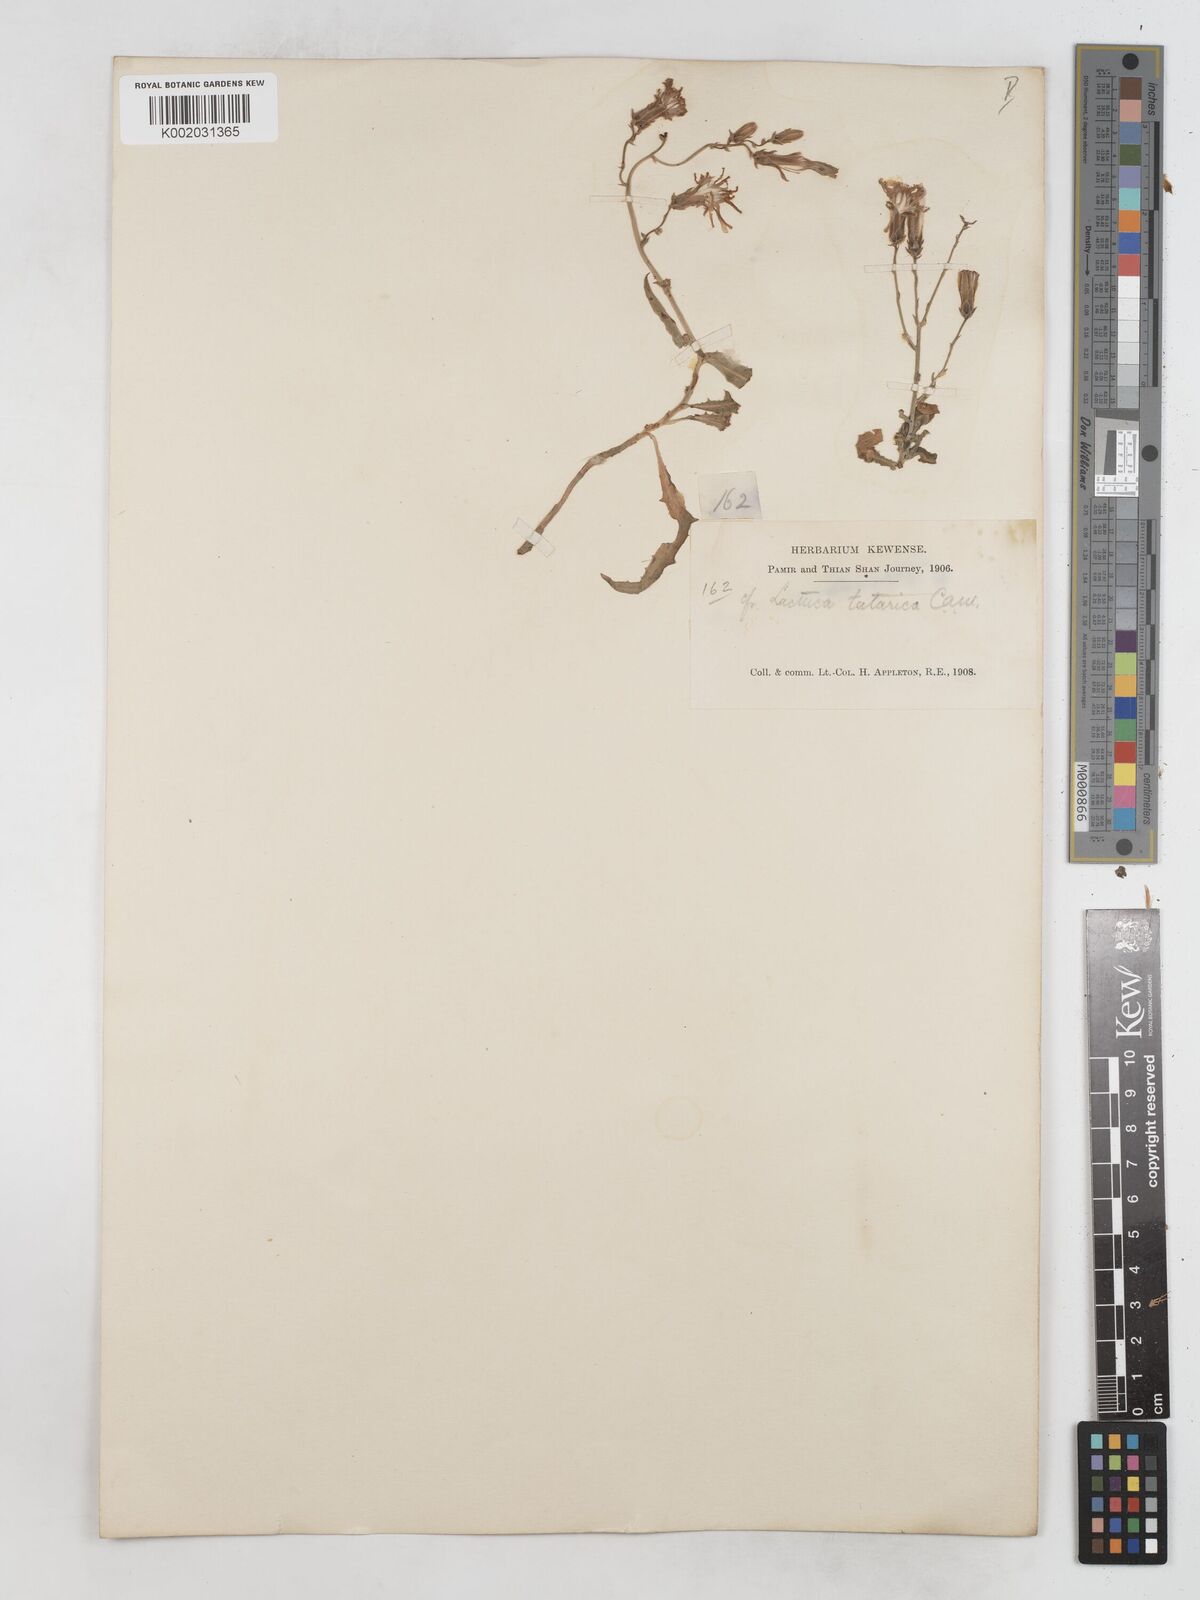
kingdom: Plantae
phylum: Tracheophyta
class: Magnoliopsida
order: Asterales
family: Asteraceae
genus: Lactuca
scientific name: Lactuca tatarica
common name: Blue lettuce
